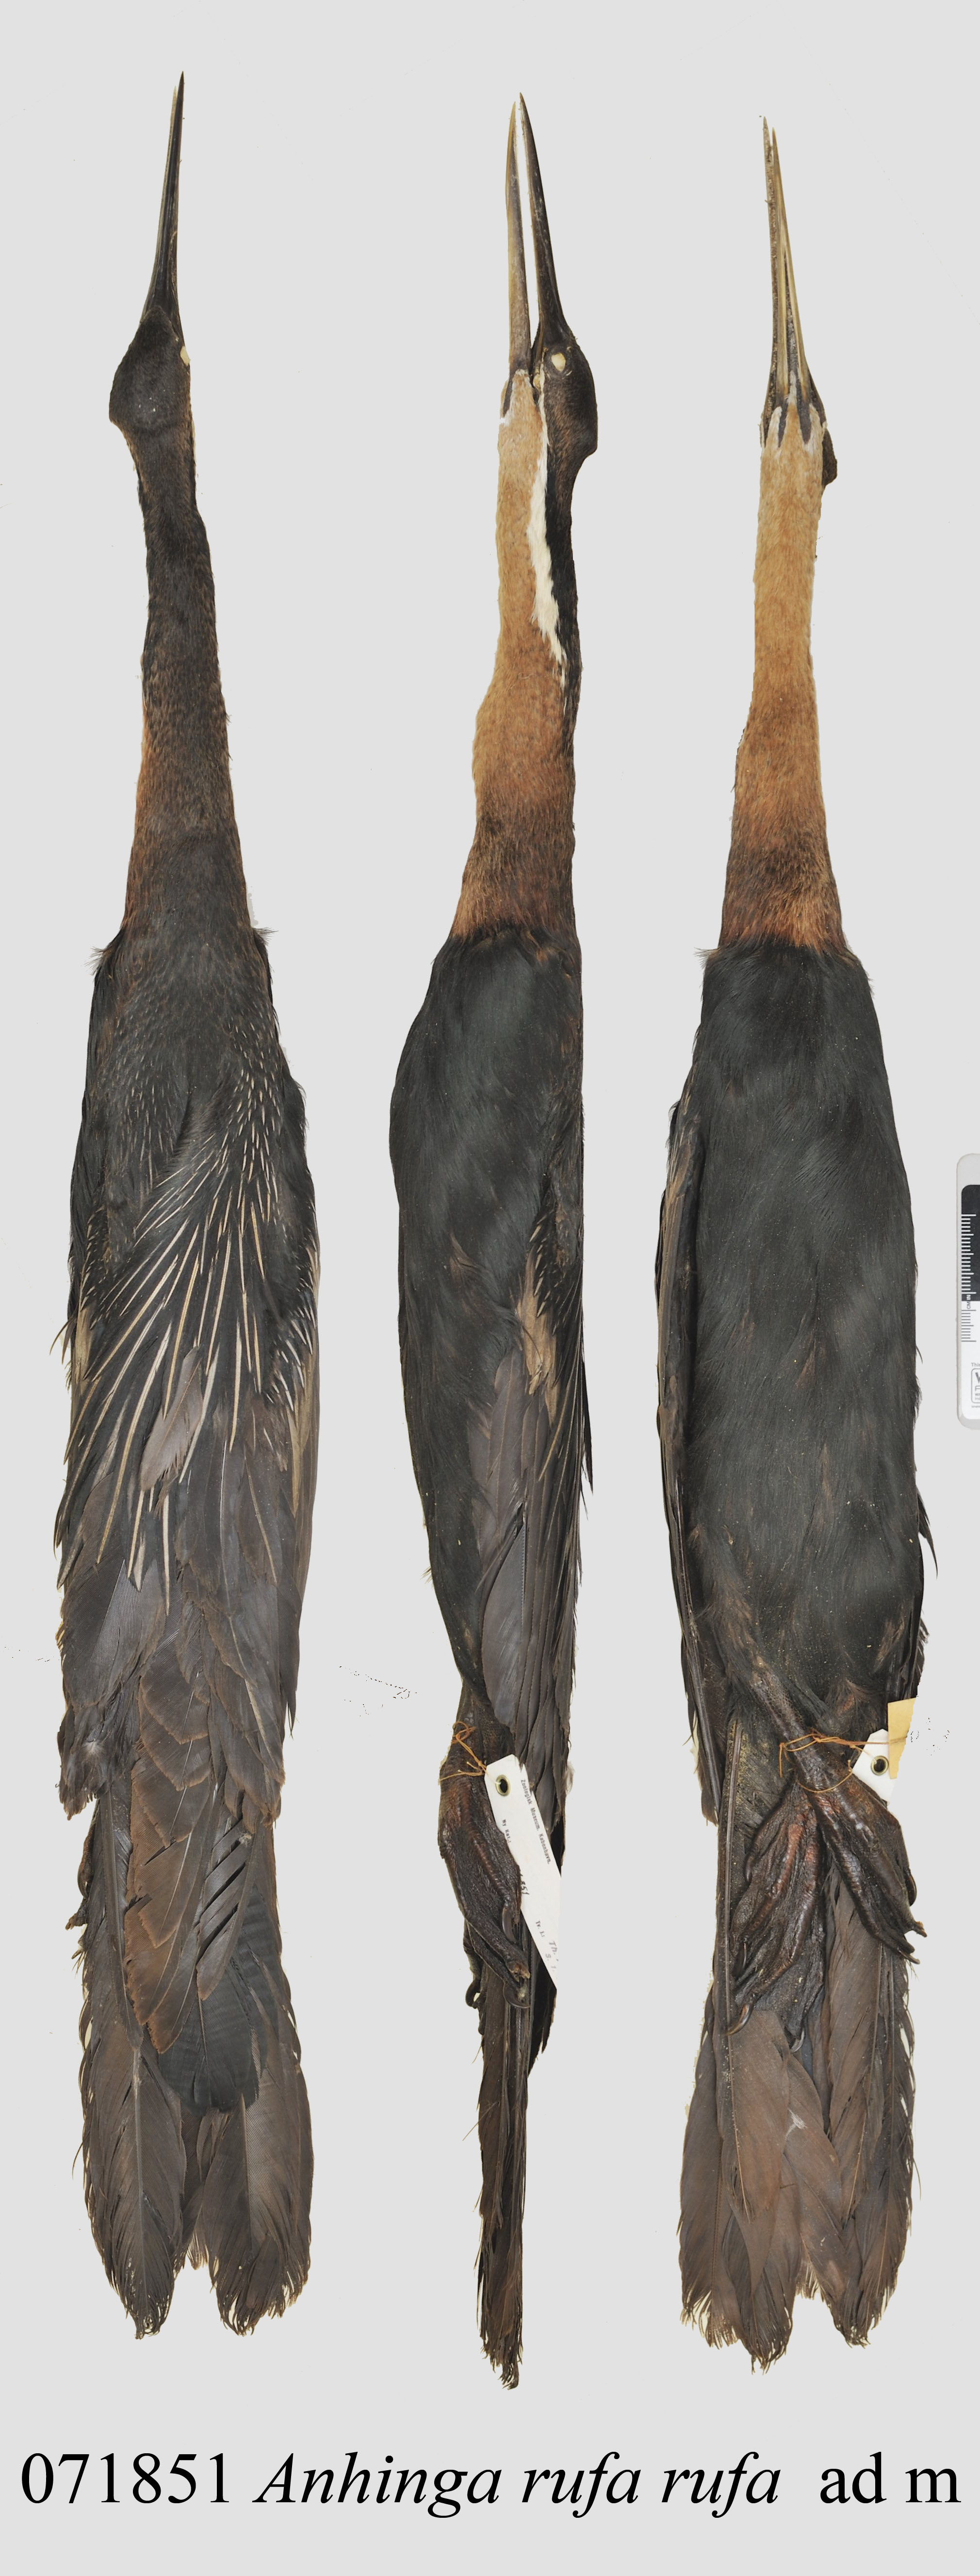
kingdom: Animalia
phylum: Chordata
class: Aves
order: Suliformes
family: Anhingidae
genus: Anhinga
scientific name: Anhinga rufa
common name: African darter
